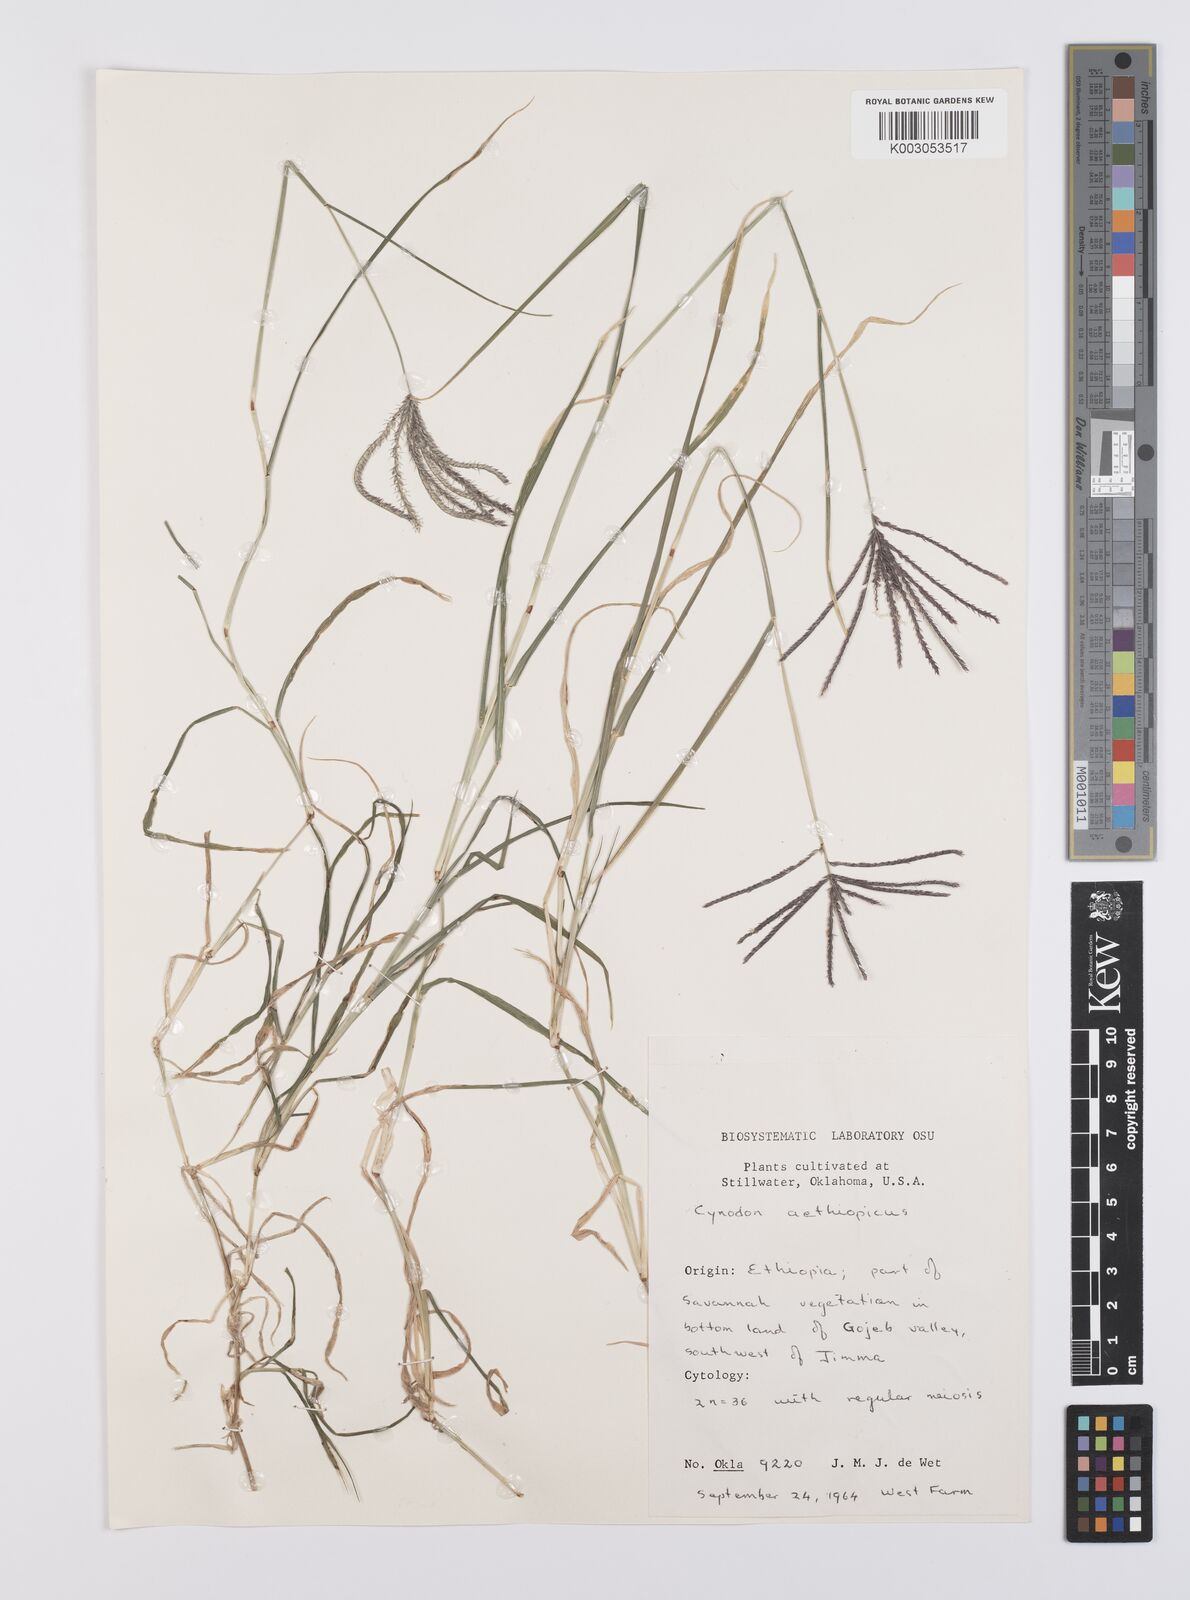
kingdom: Plantae
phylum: Tracheophyta
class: Liliopsida
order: Poales
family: Poaceae
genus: Cynodon
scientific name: Cynodon aethiopicus
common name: Ethiopian dogstooth grass
